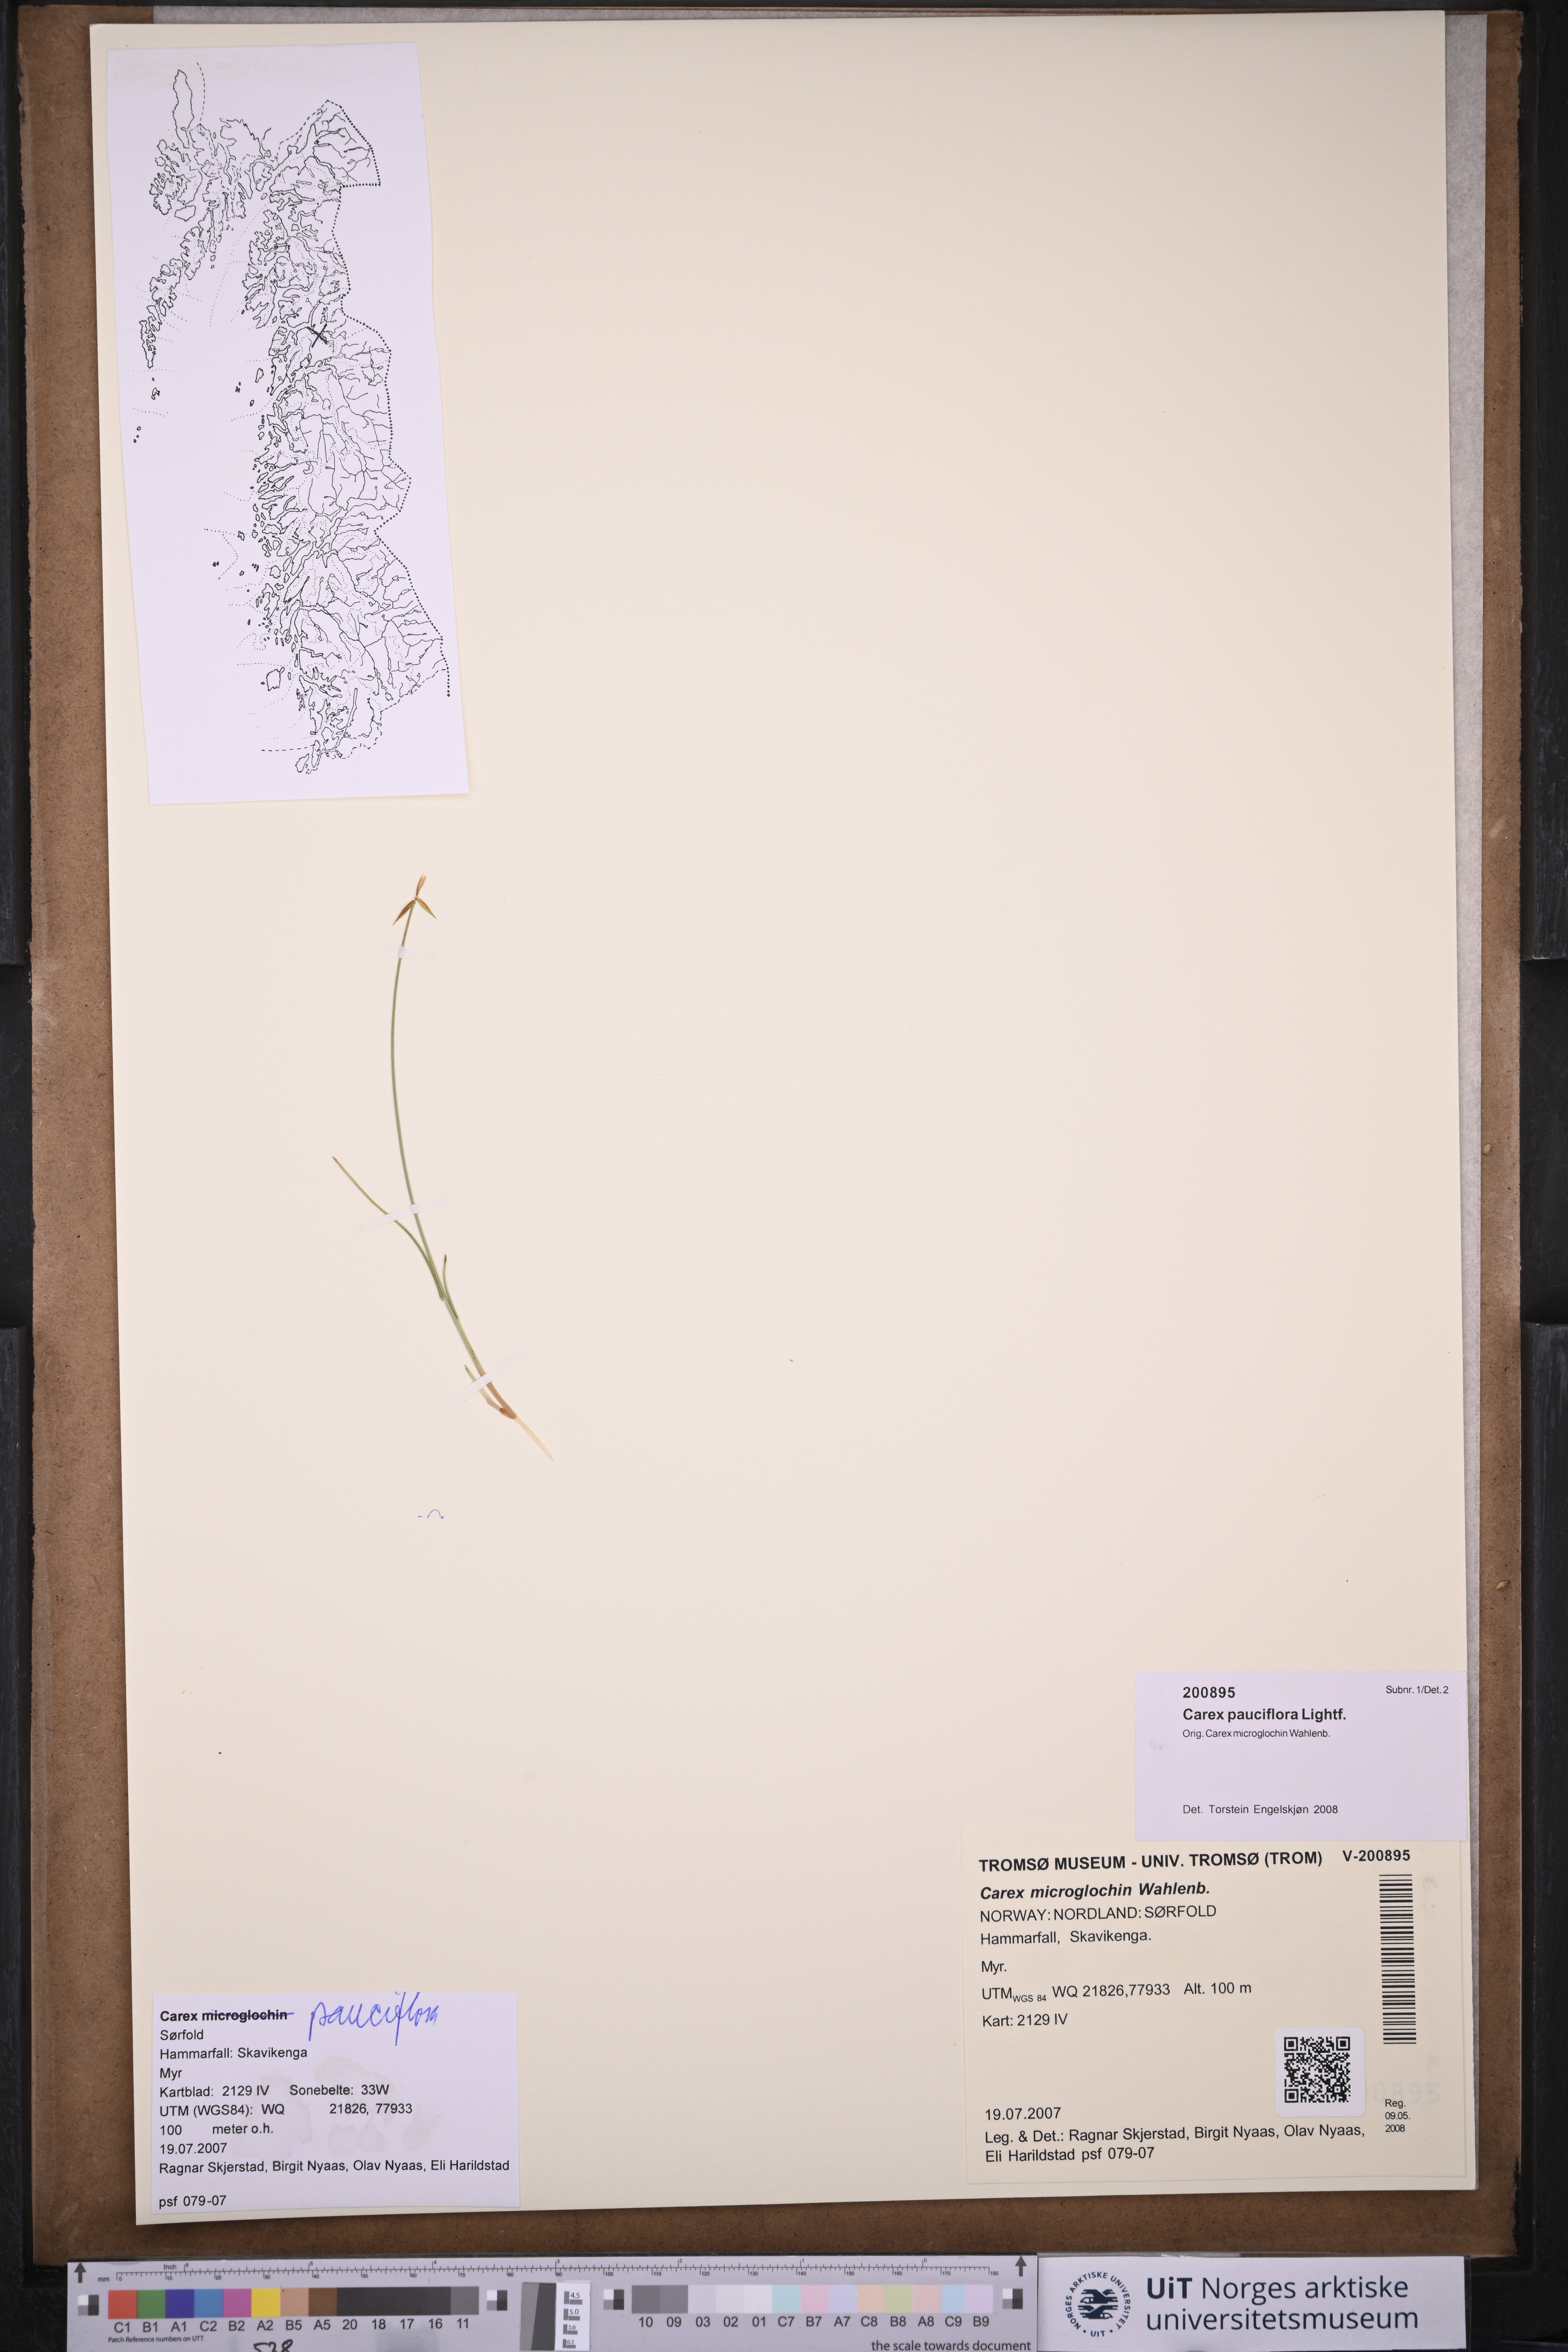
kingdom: Plantae
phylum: Tracheophyta
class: Liliopsida
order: Poales
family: Cyperaceae
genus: Carex
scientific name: Carex pauciflora
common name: Few-flowered sedge
